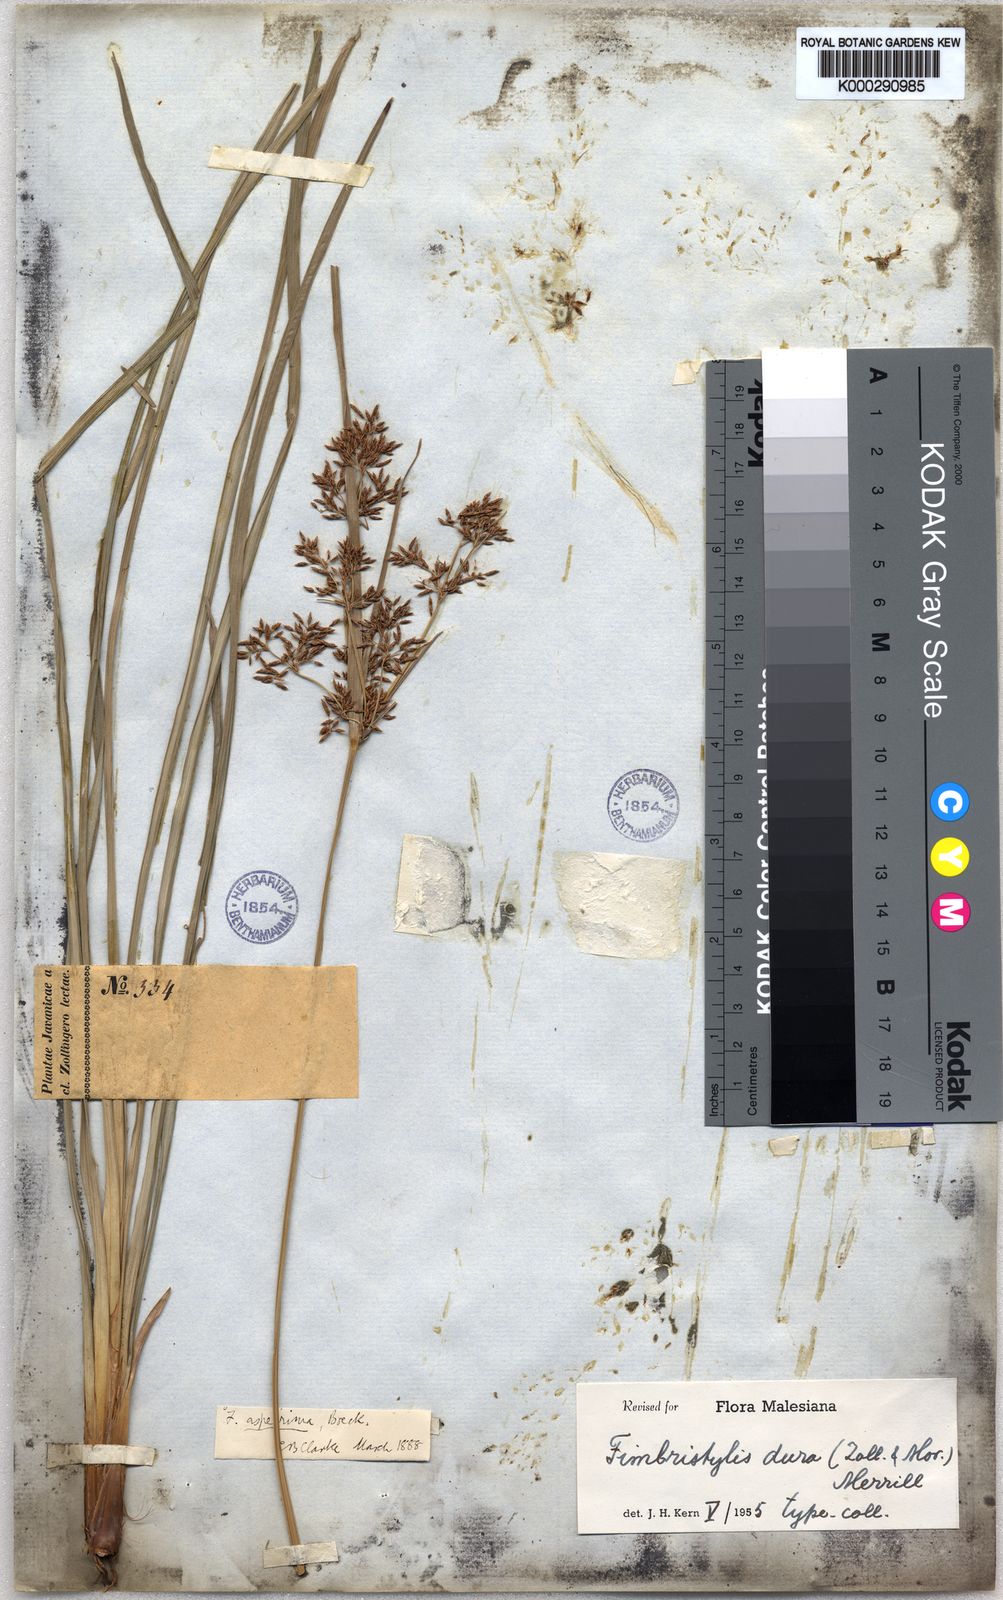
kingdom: Plantae
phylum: Tracheophyta
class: Liliopsida
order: Poales
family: Cyperaceae
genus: Fimbristylis
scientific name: Fimbristylis dura
